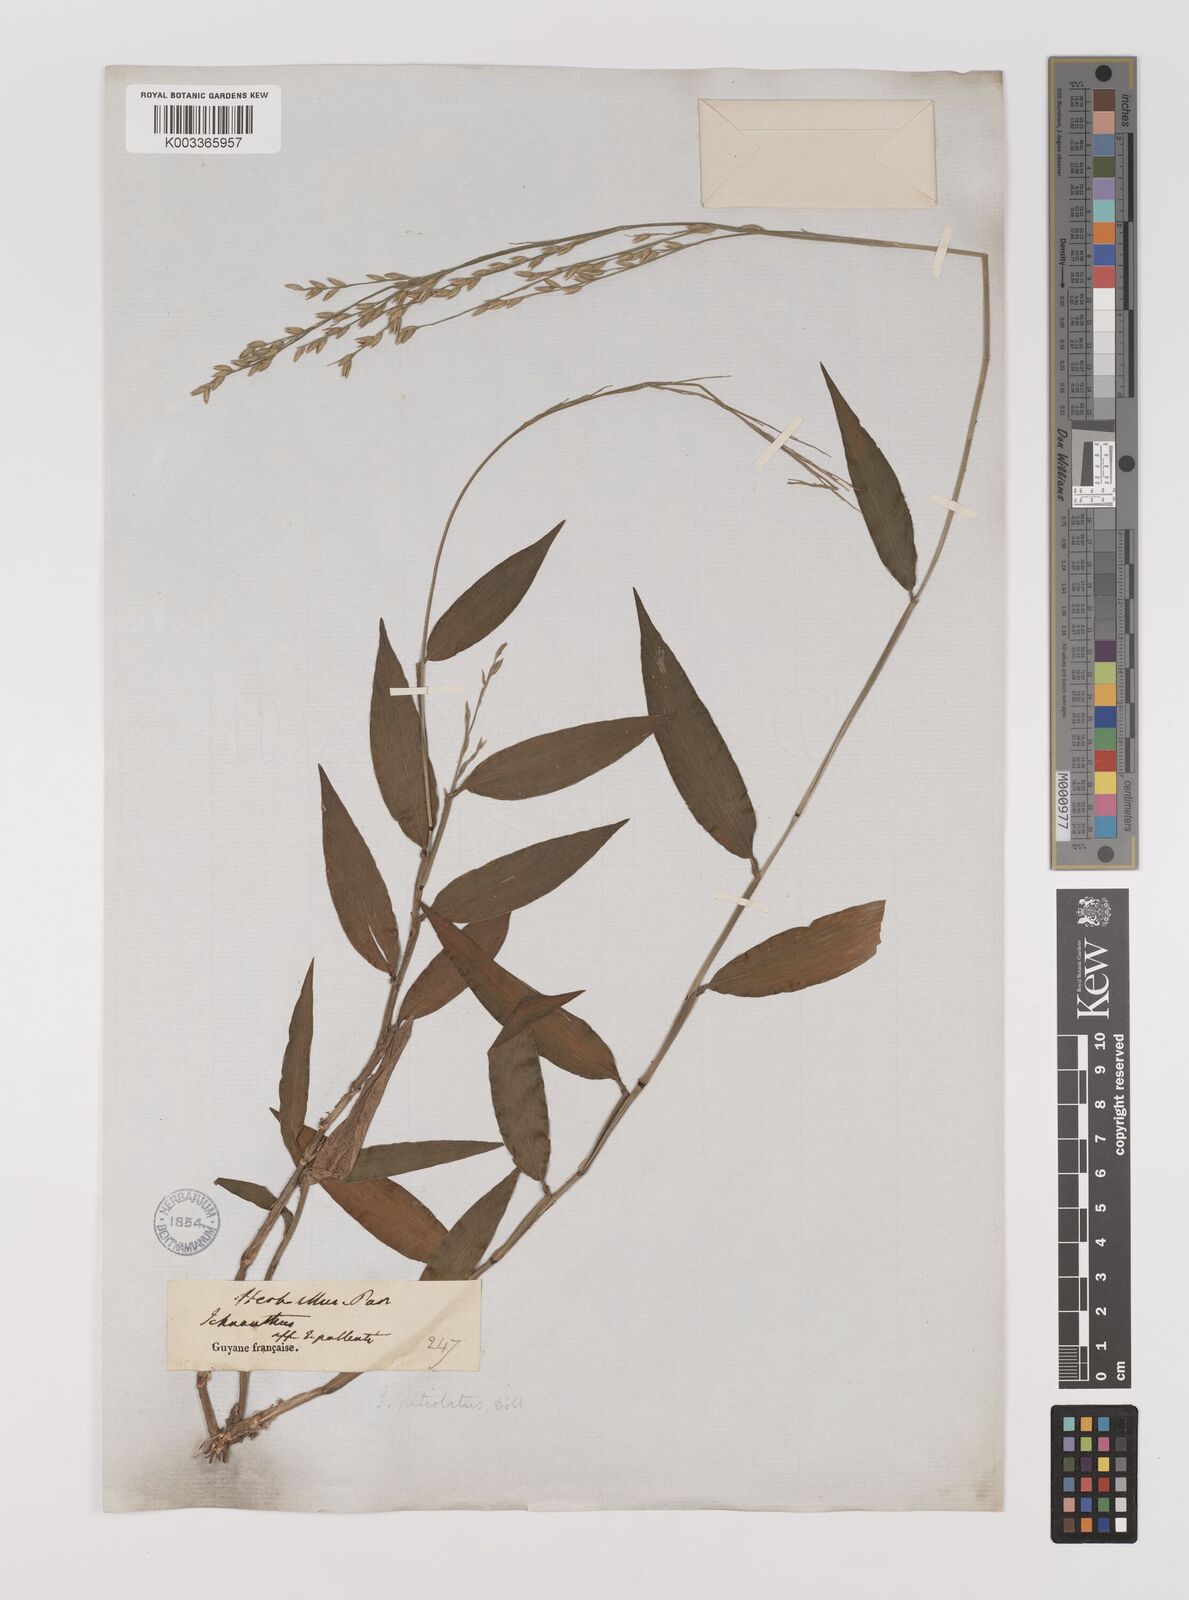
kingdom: Plantae
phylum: Tracheophyta
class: Liliopsida
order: Poales
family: Poaceae
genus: Ichnanthus
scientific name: Ichnanthus nemoralis
